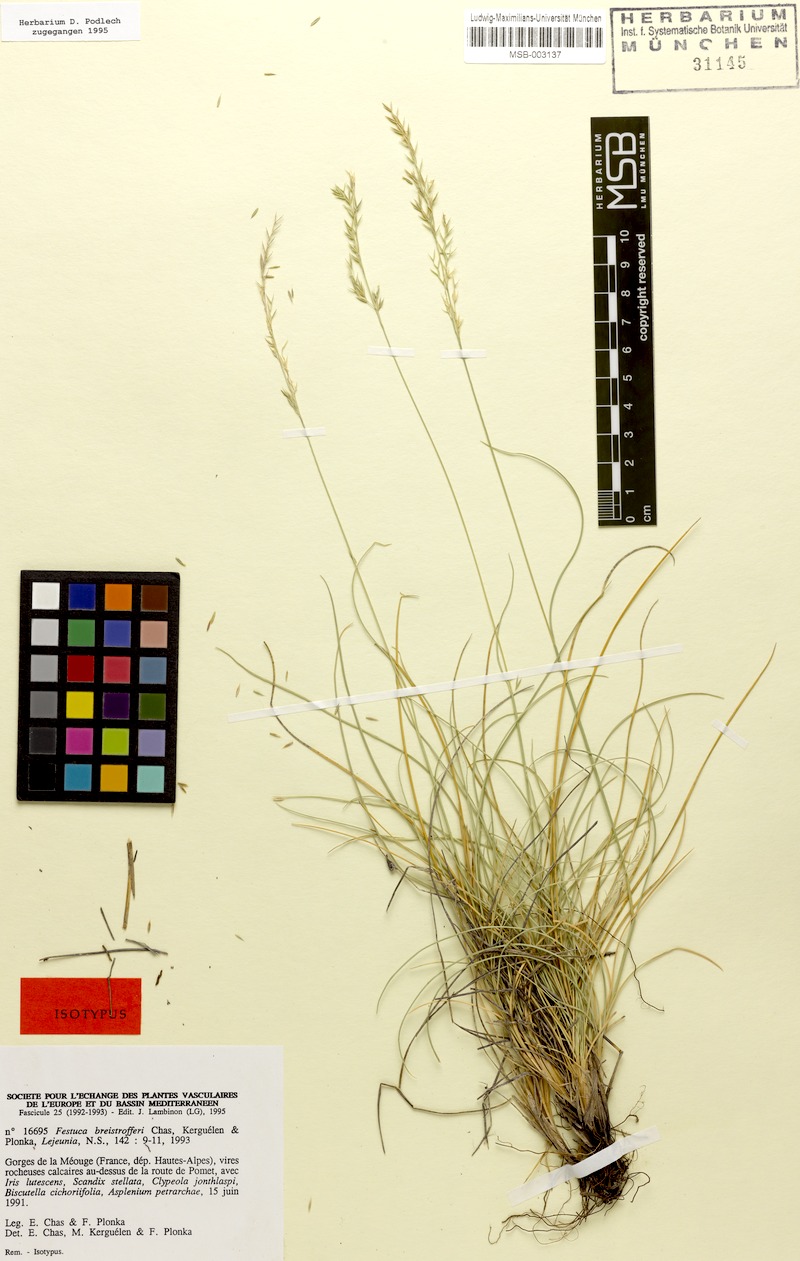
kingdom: Plantae
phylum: Tracheophyta
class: Liliopsida
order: Poales
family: Poaceae
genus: Festuca
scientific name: Festuca breistrofferi
